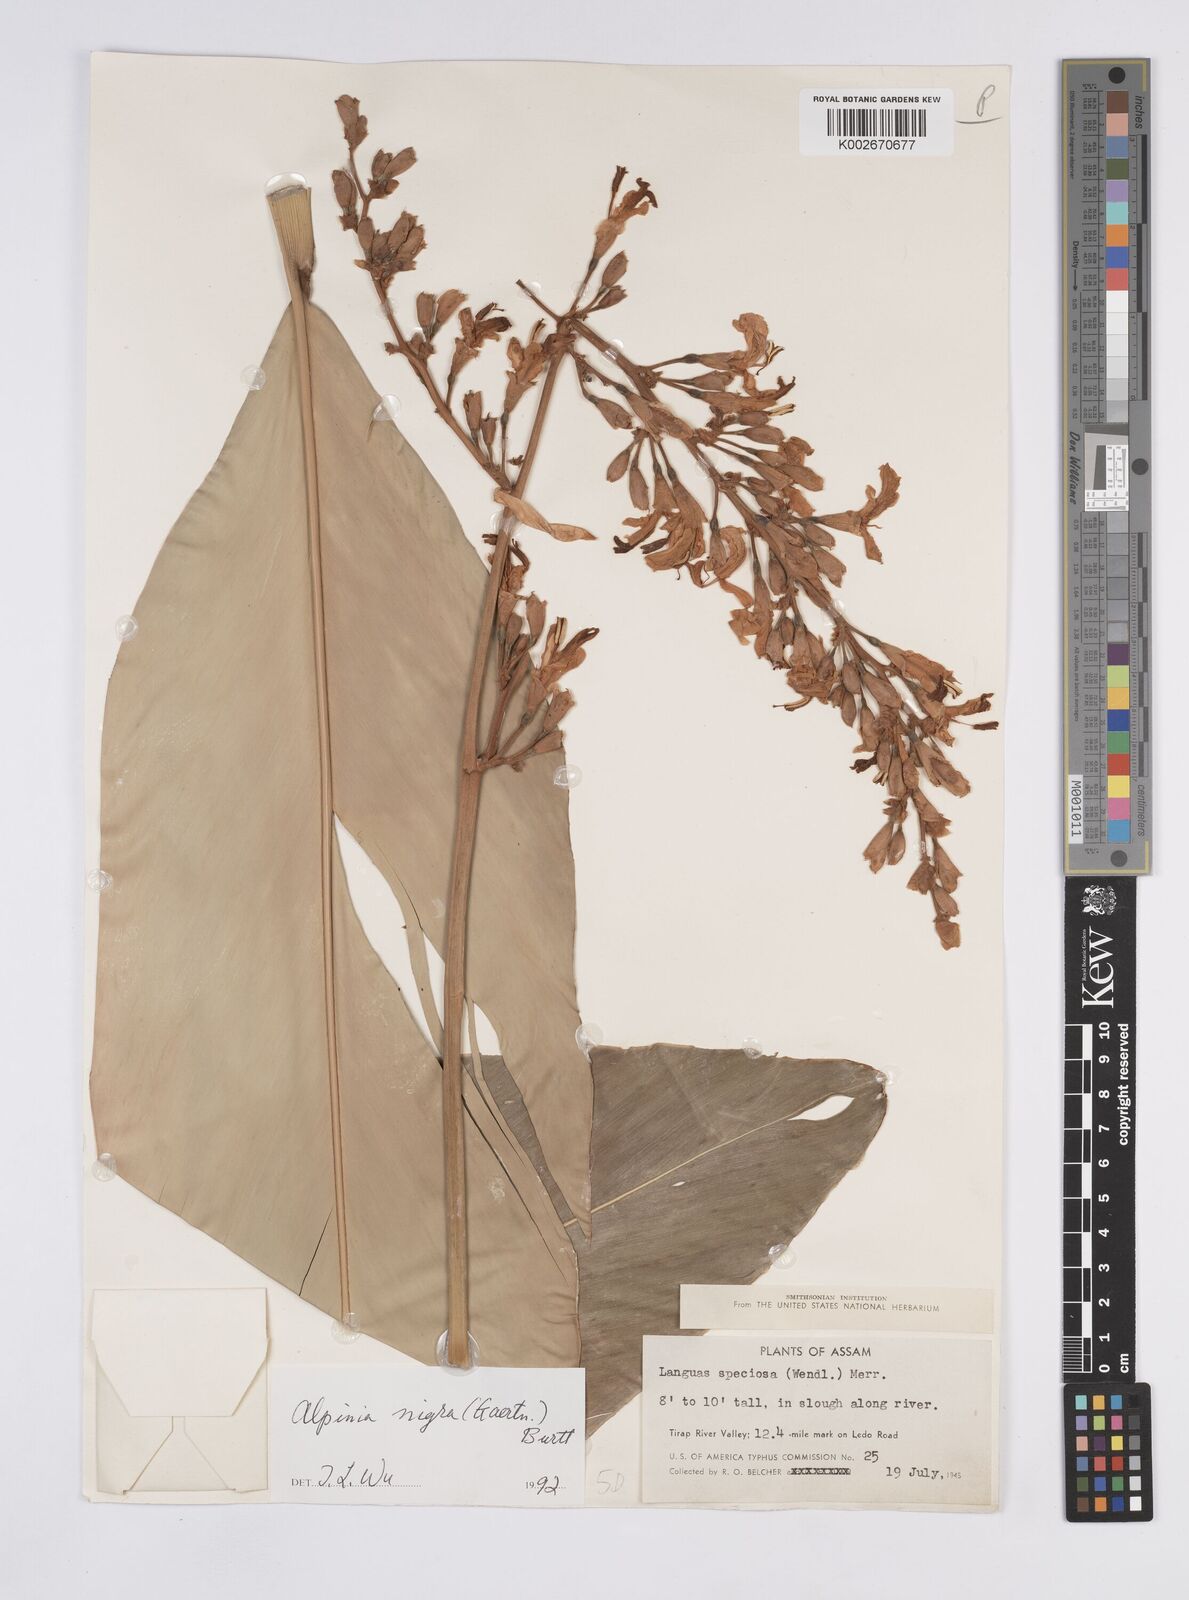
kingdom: Plantae
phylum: Tracheophyta
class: Liliopsida
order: Zingiberales
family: Zingiberaceae
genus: Alpinia
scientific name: Alpinia nigra
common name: Black fruited galanga
